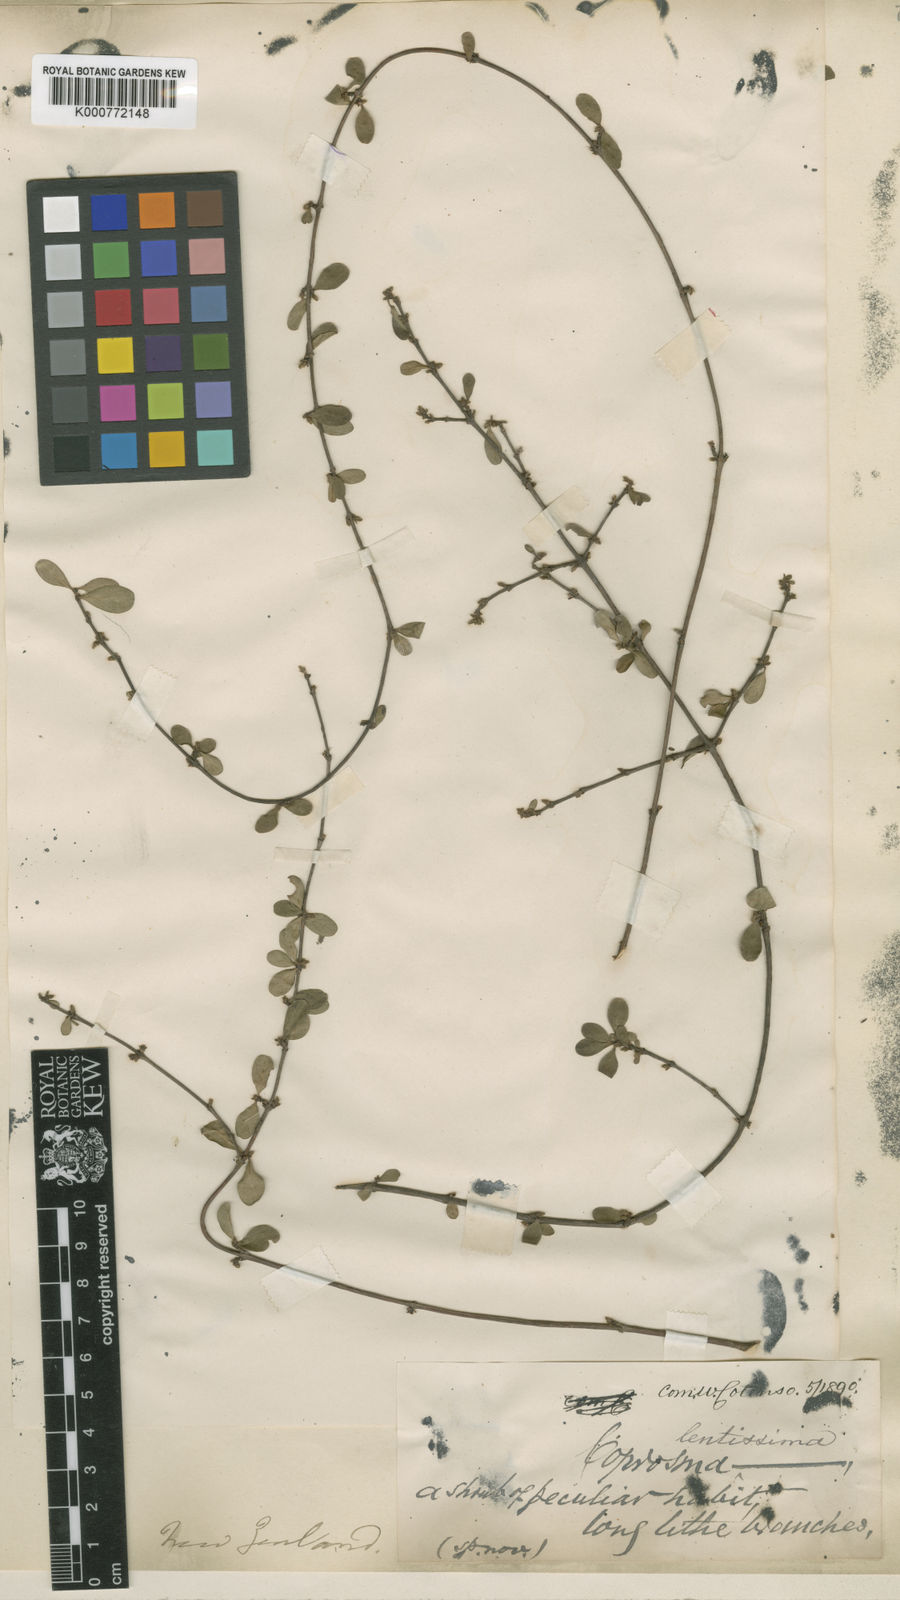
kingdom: Plantae
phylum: Tracheophyta
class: Magnoliopsida
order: Gentianales
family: Rubiaceae
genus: Coprosma
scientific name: Coprosma rigida
